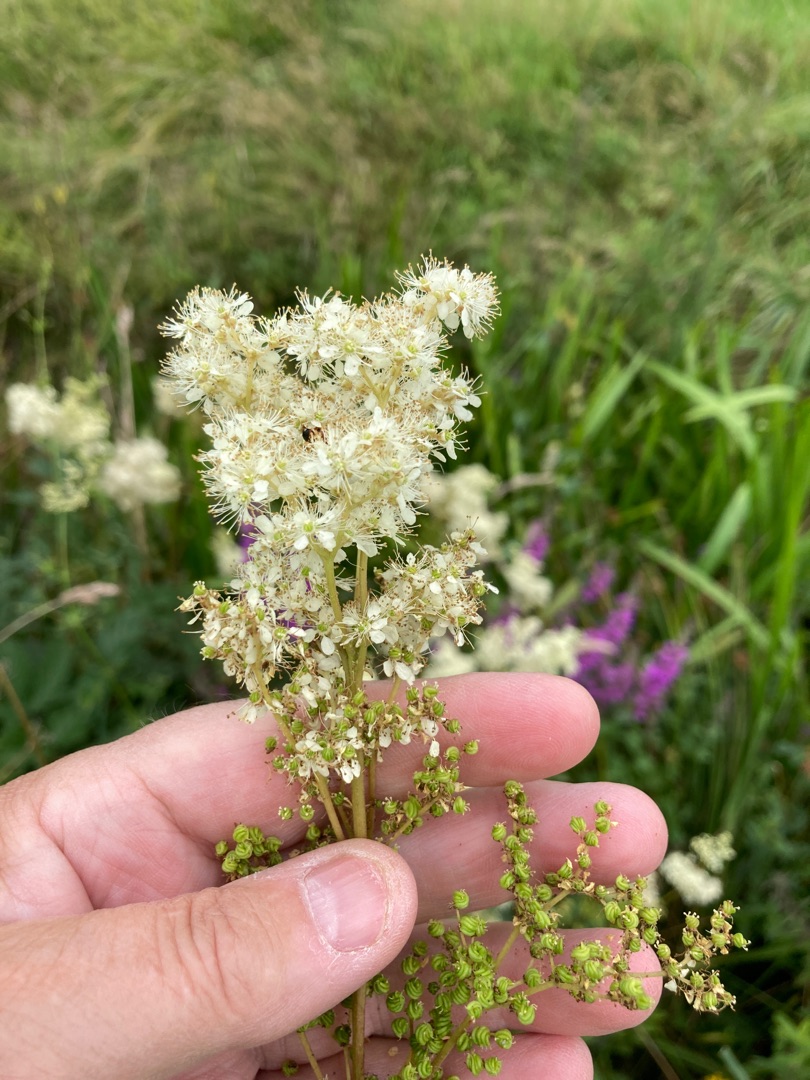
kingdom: Plantae
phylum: Tracheophyta
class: Magnoliopsida
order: Rosales
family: Rosaceae
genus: Filipendula
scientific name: Filipendula ulmaria
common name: Almindelig mjødurt
